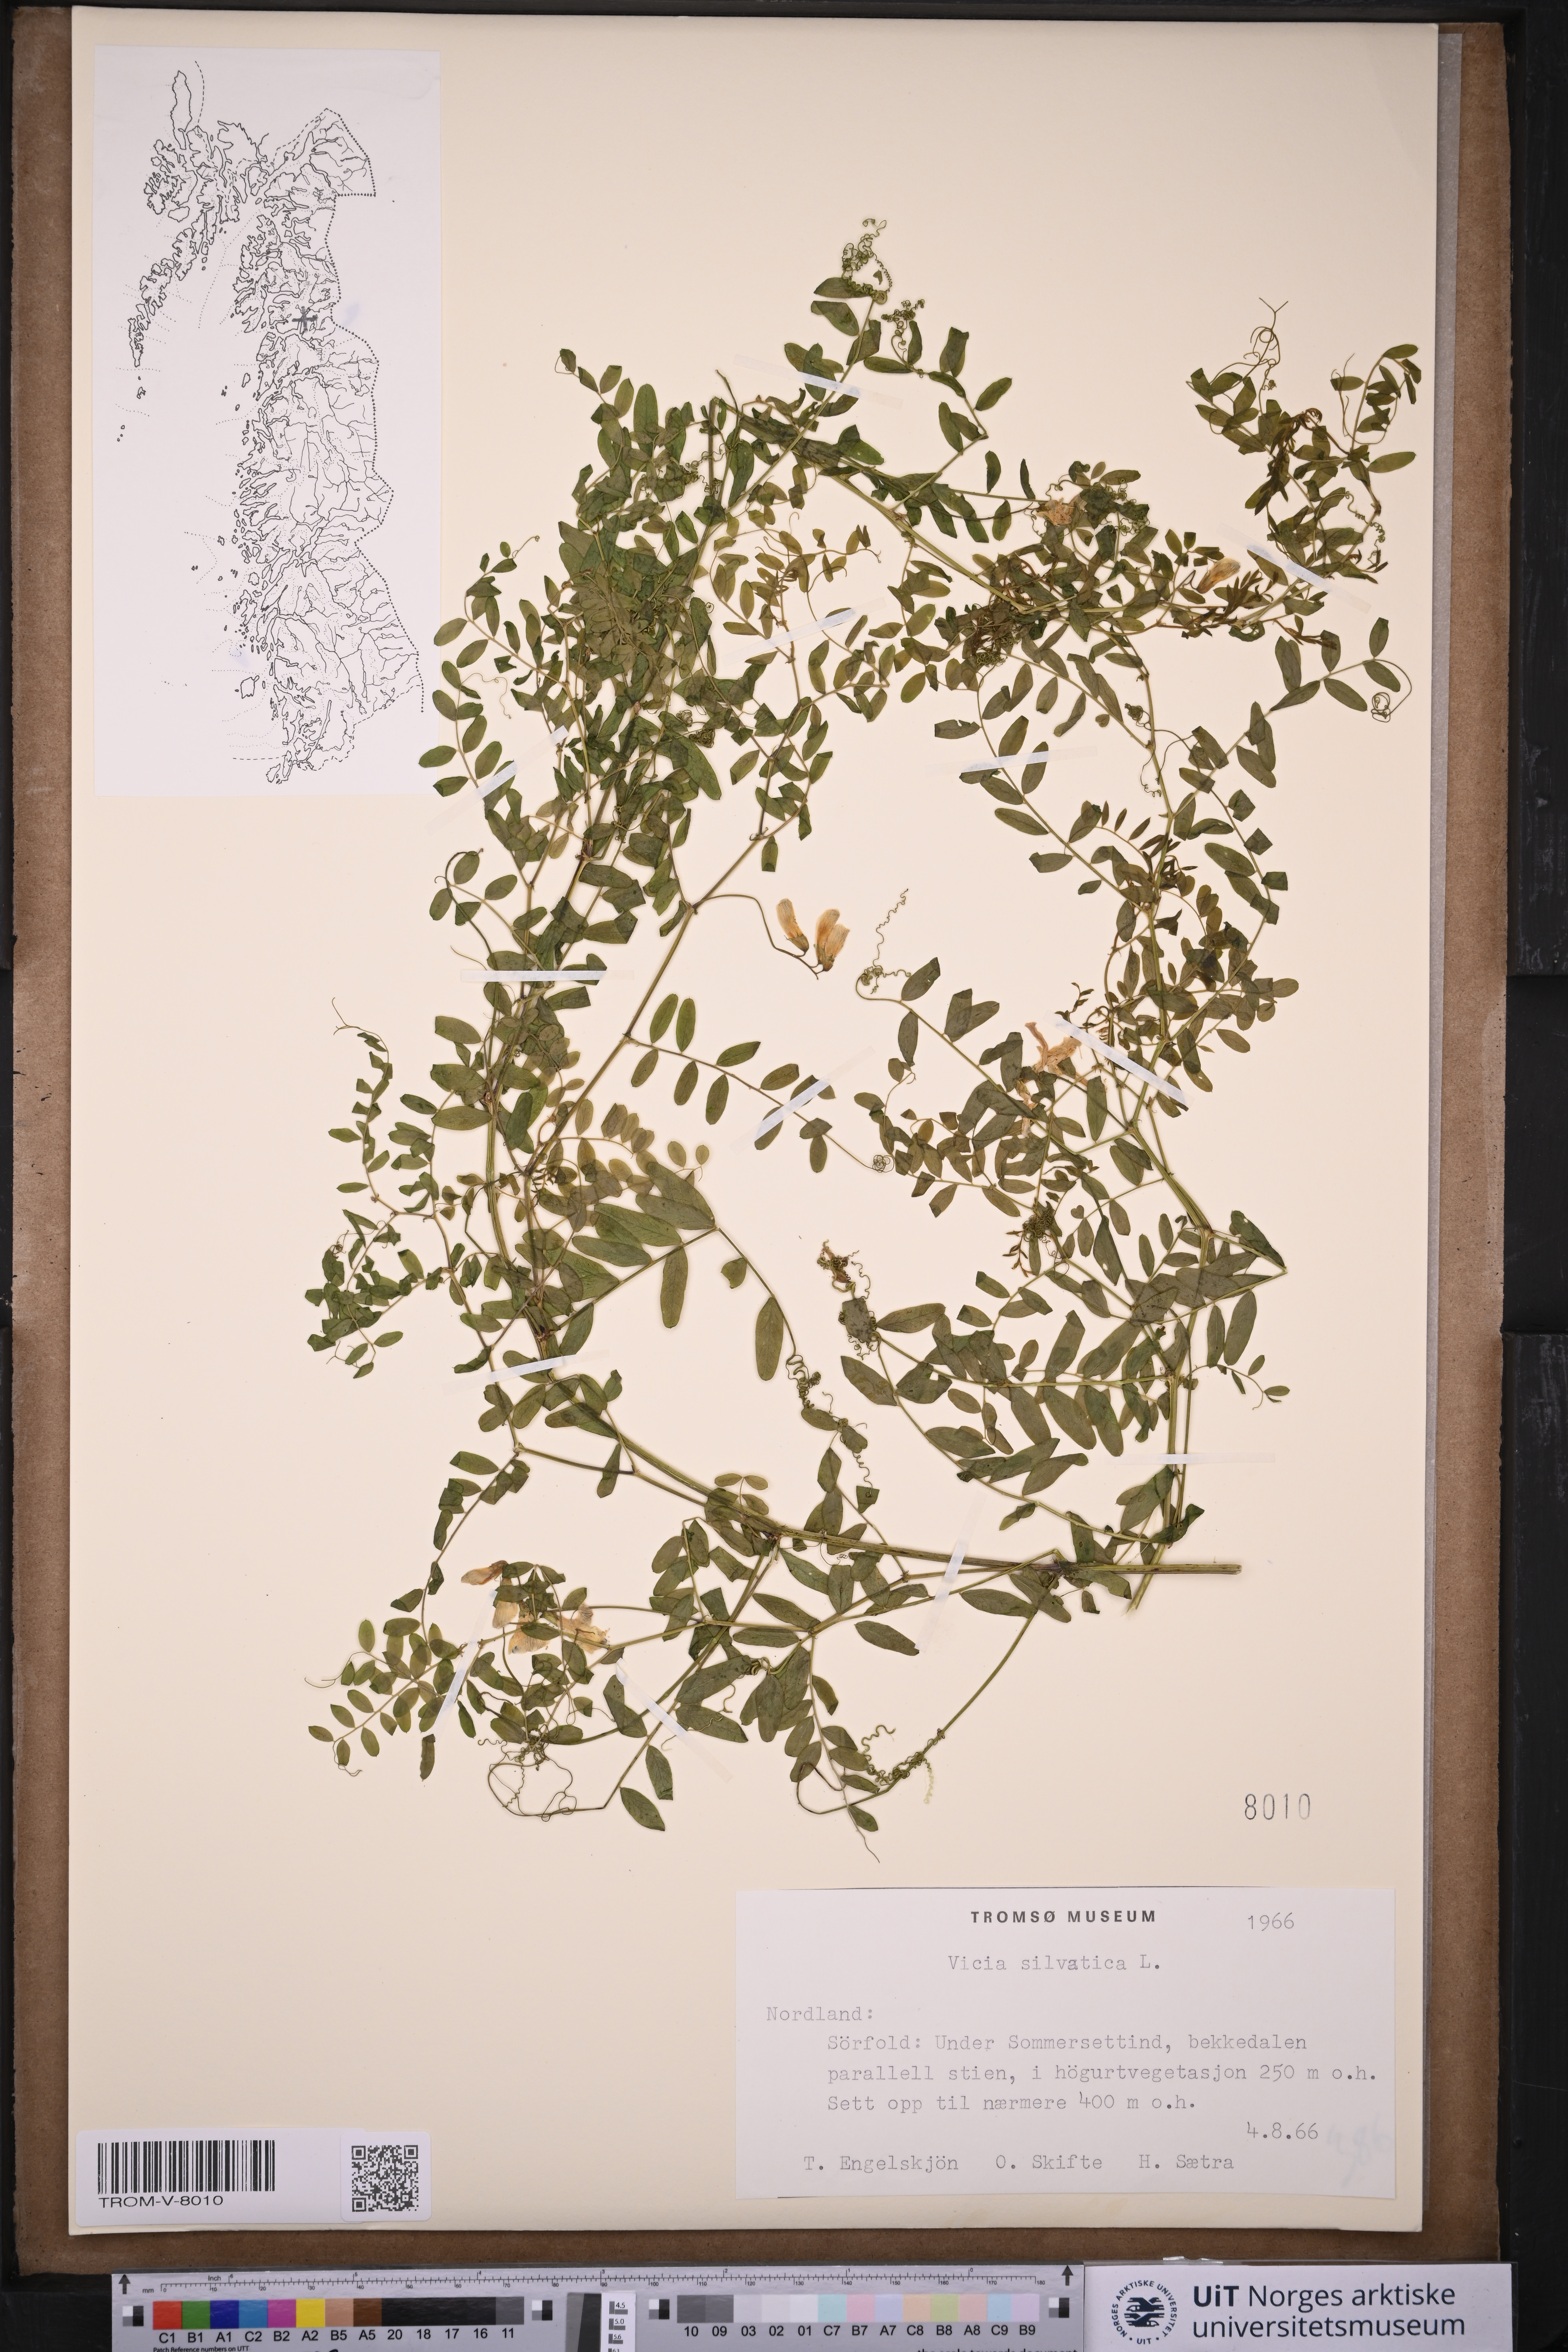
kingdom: Plantae
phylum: Tracheophyta
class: Magnoliopsida
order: Fabales
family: Fabaceae
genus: Vicia
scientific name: Vicia sylvatica
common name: Wood vetch
